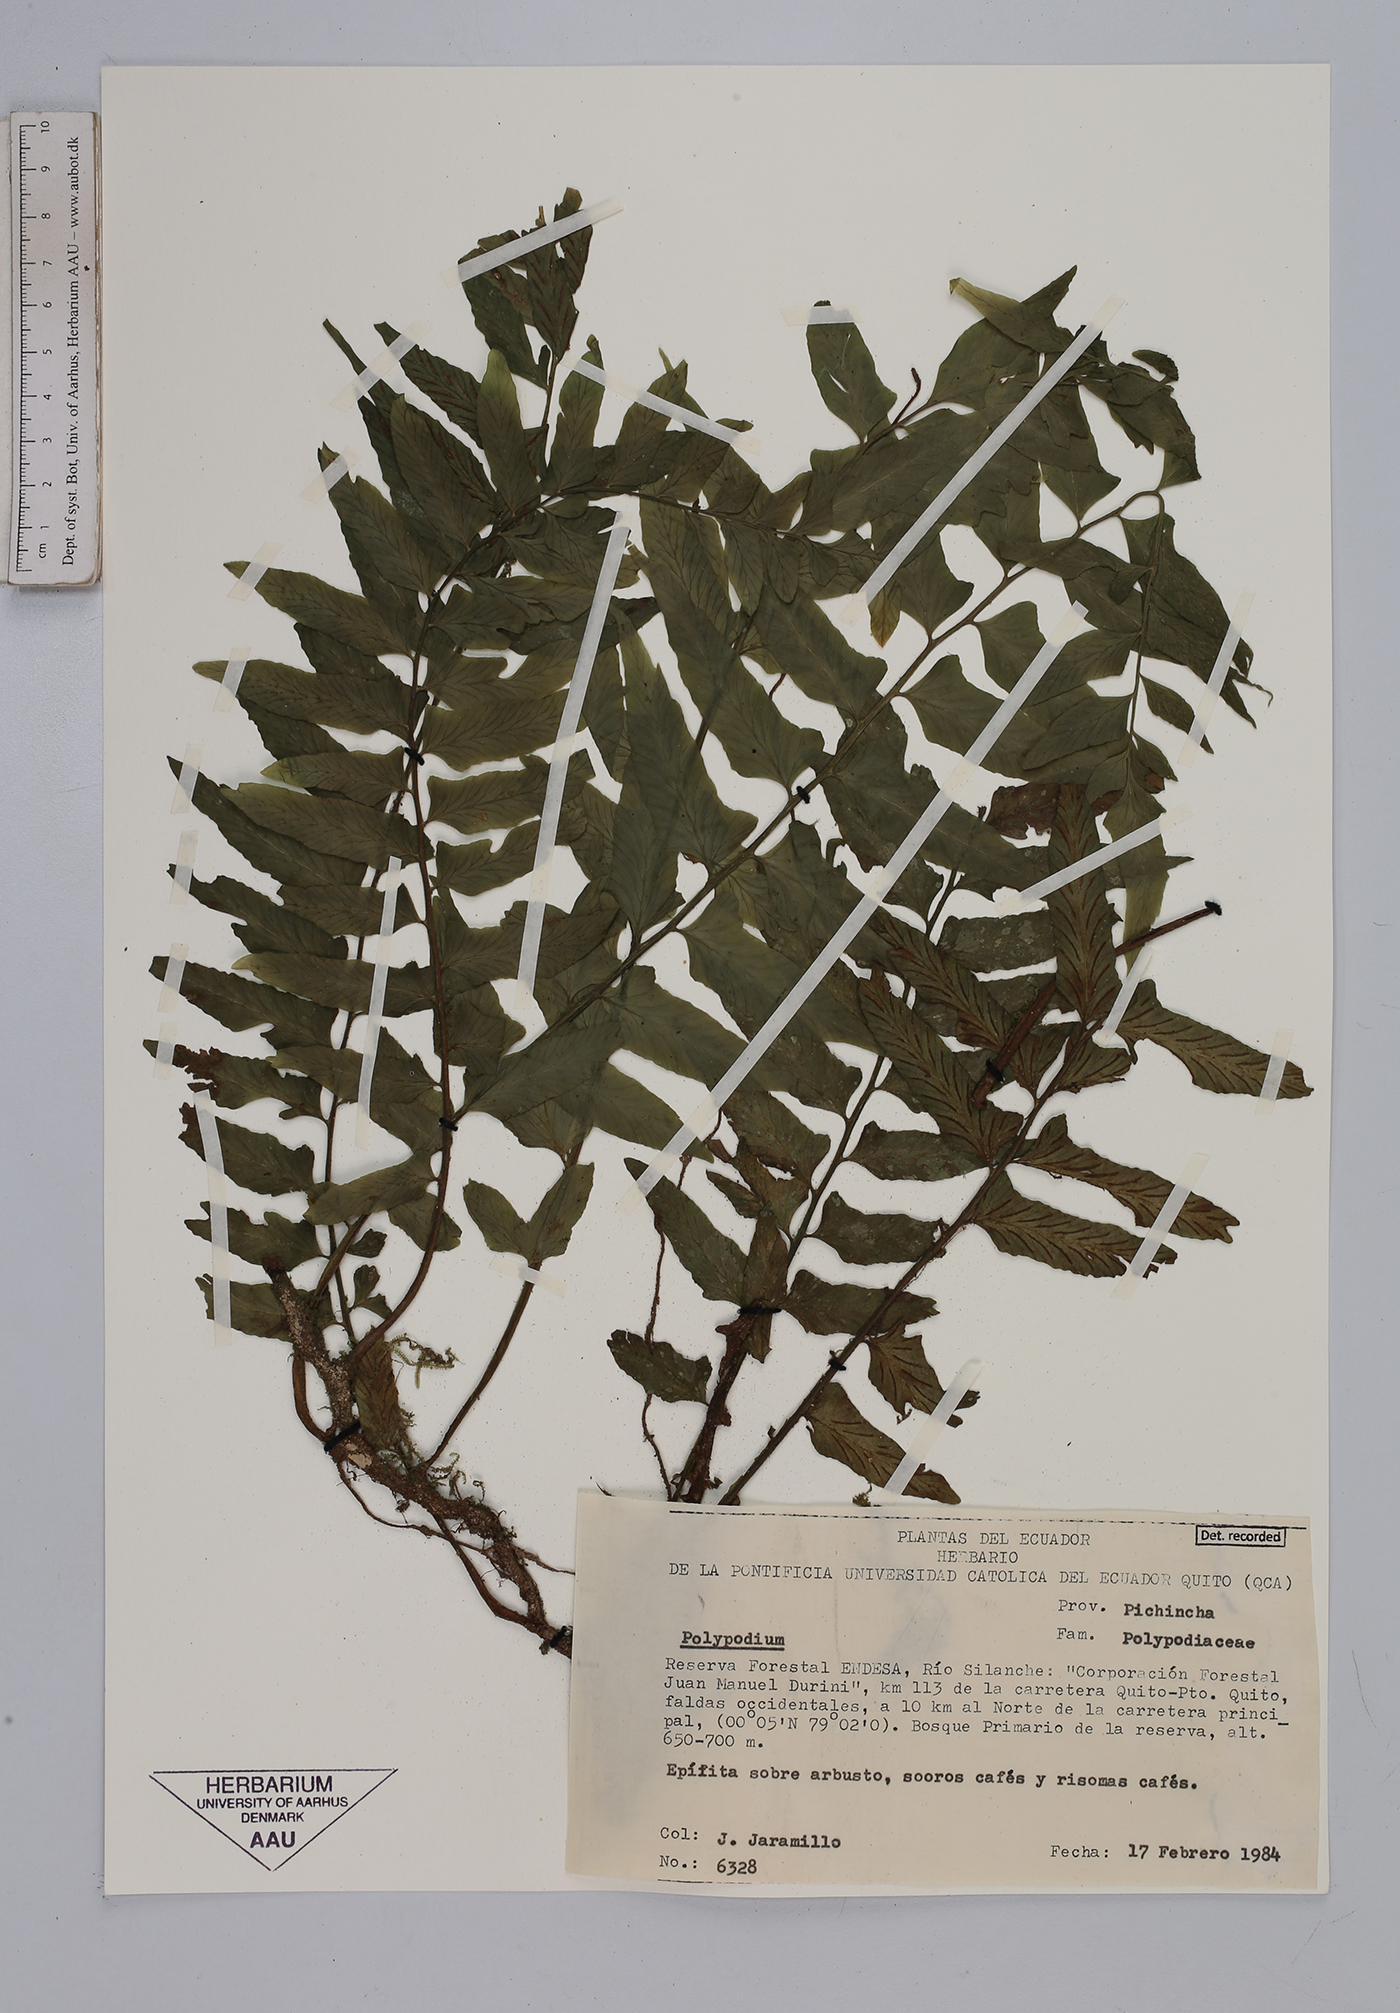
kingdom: Plantae
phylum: Tracheophyta
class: Polypodiopsida
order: Polypodiales
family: Aspleniaceae
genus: Asplenium
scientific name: Asplenium
